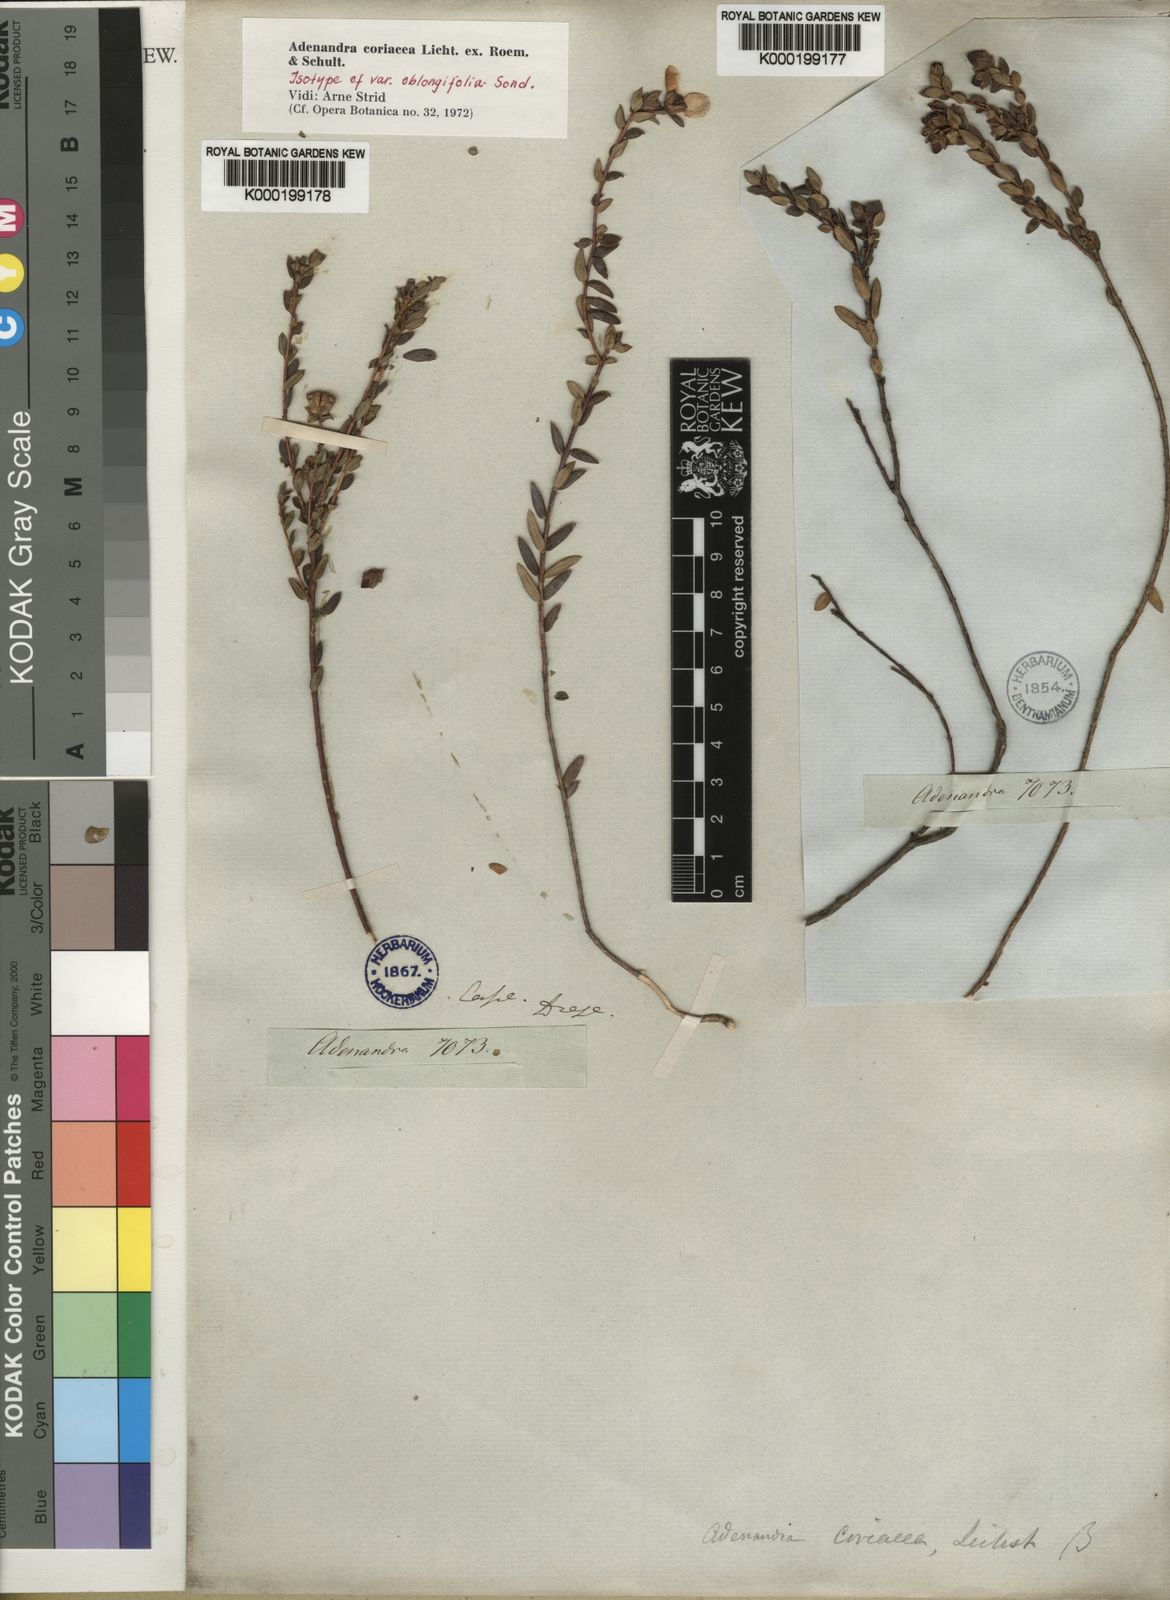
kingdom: Plantae
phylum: Tracheophyta
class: Magnoliopsida
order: Sapindales
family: Rutaceae
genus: Adenandra
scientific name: Adenandra coriacea
